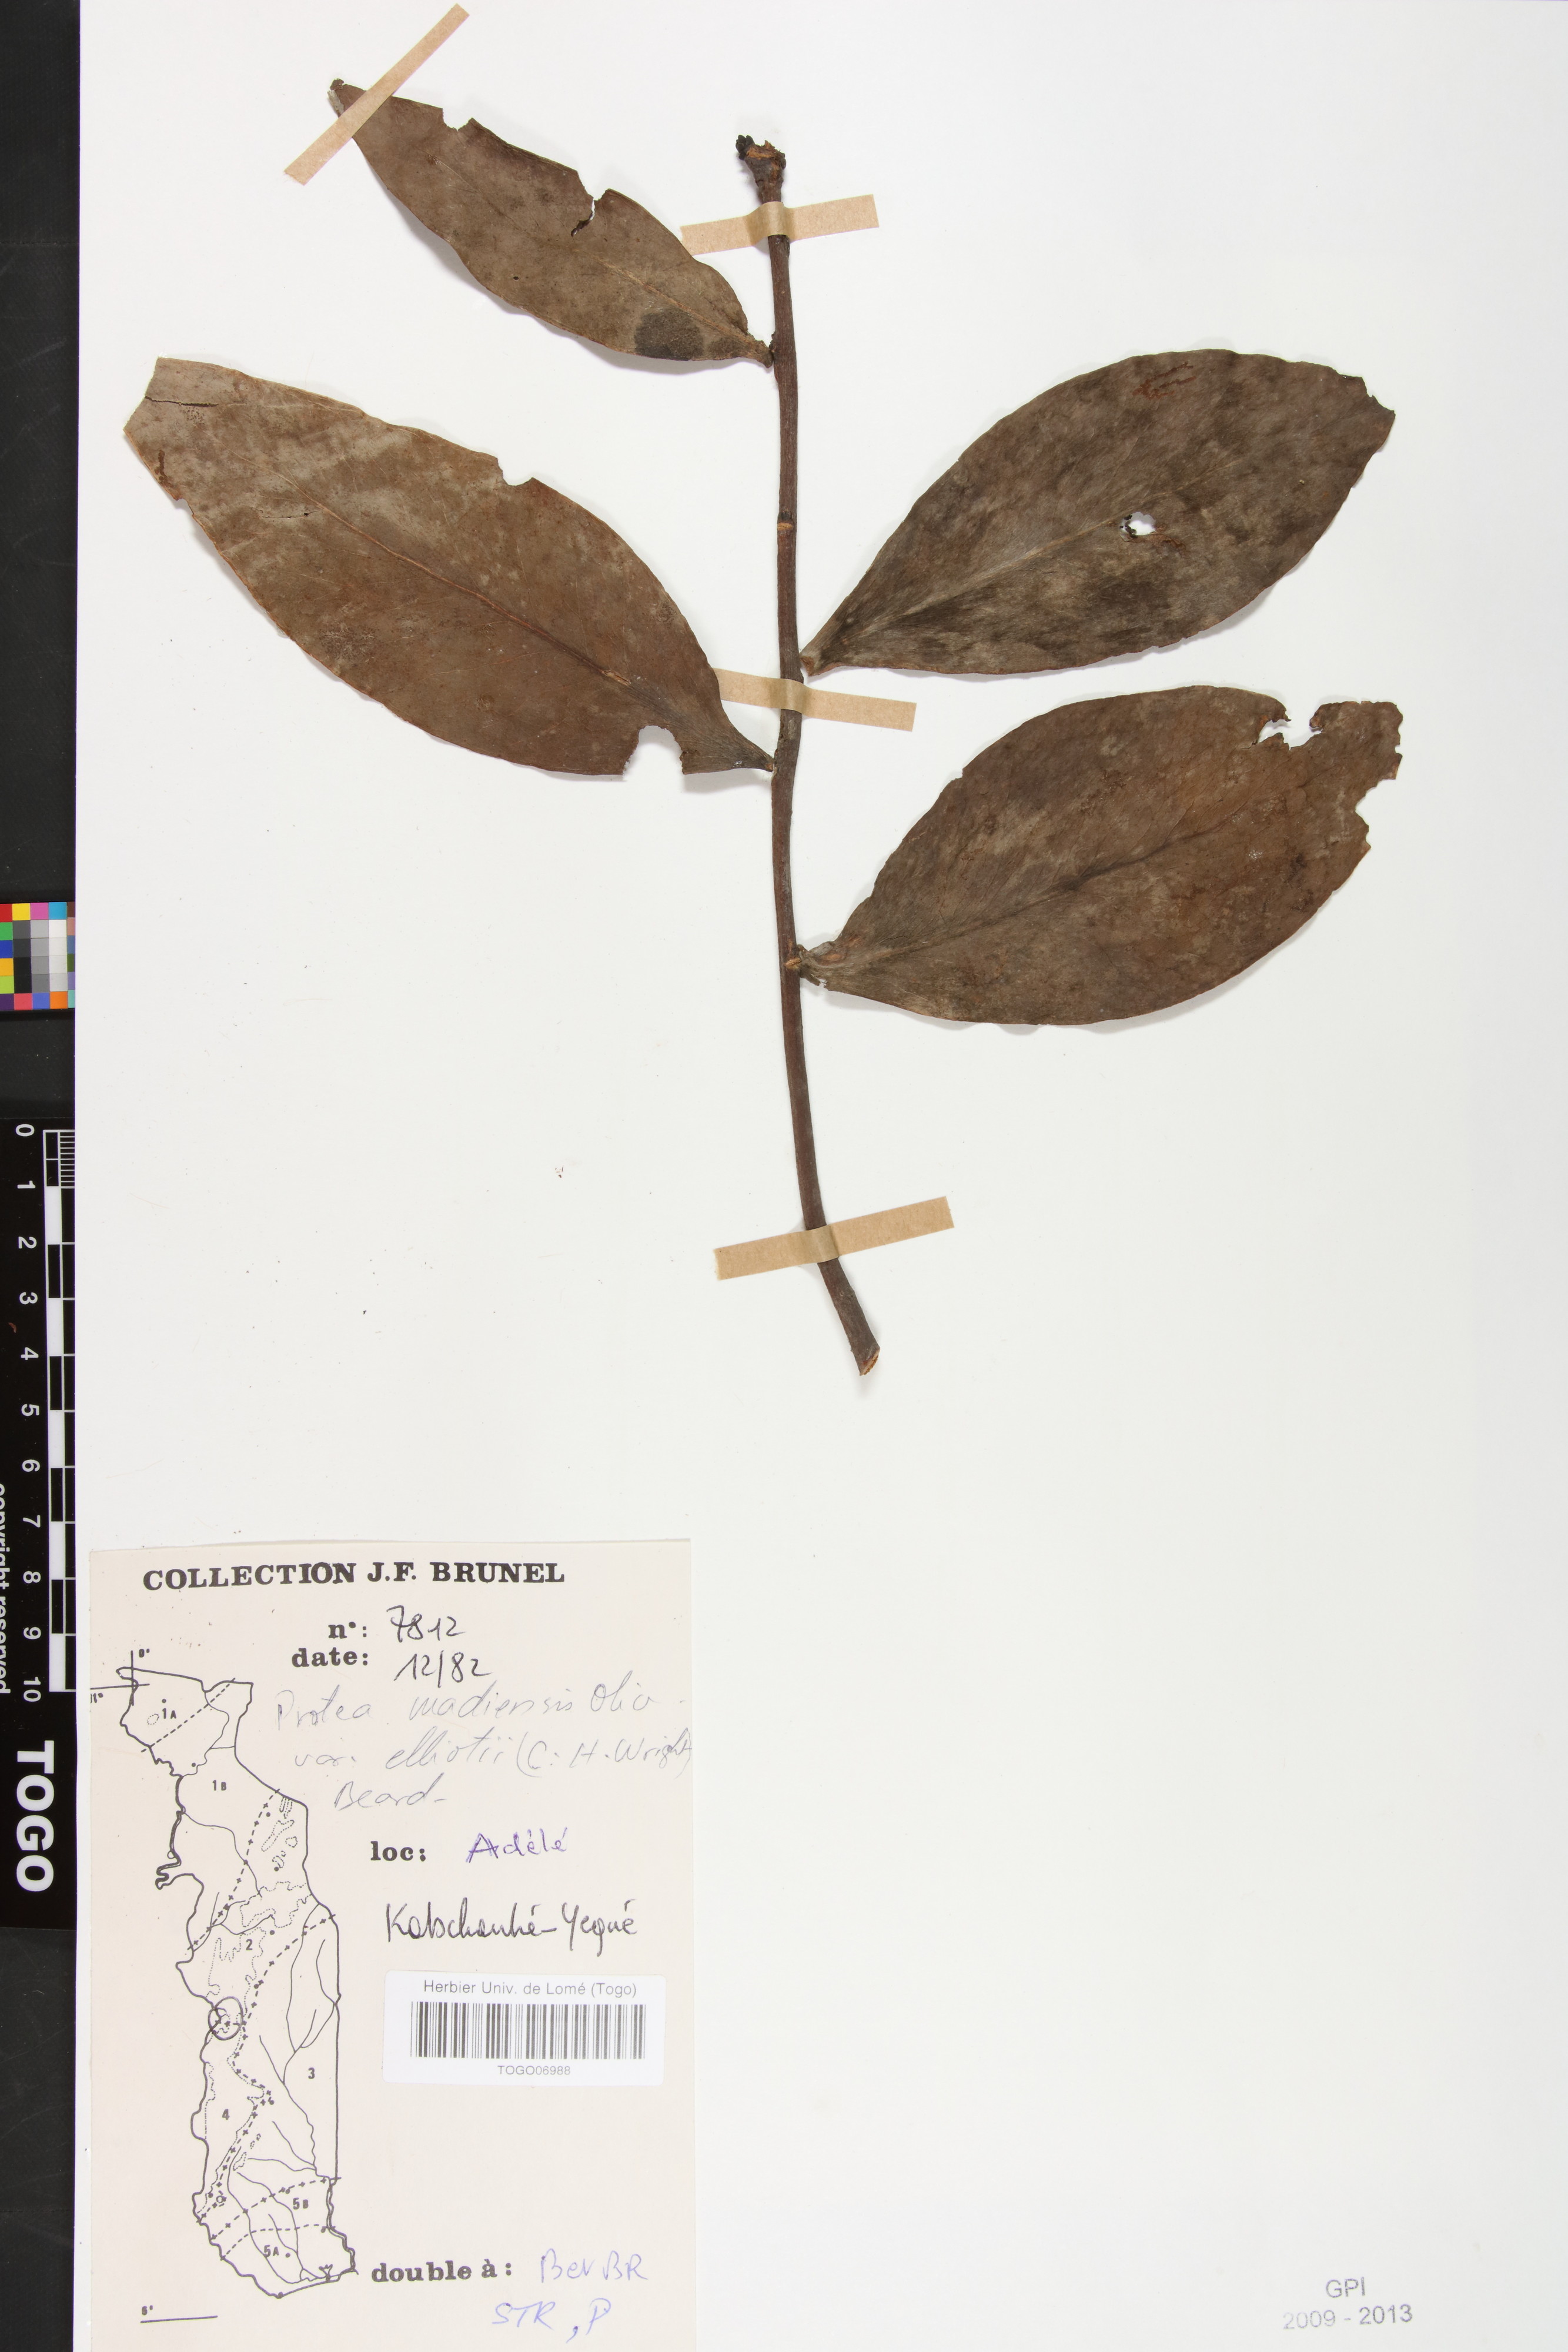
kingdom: Plantae
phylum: Tracheophyta
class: Magnoliopsida
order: Proteales
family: Proteaceae
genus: Protea
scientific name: Protea madiensis
